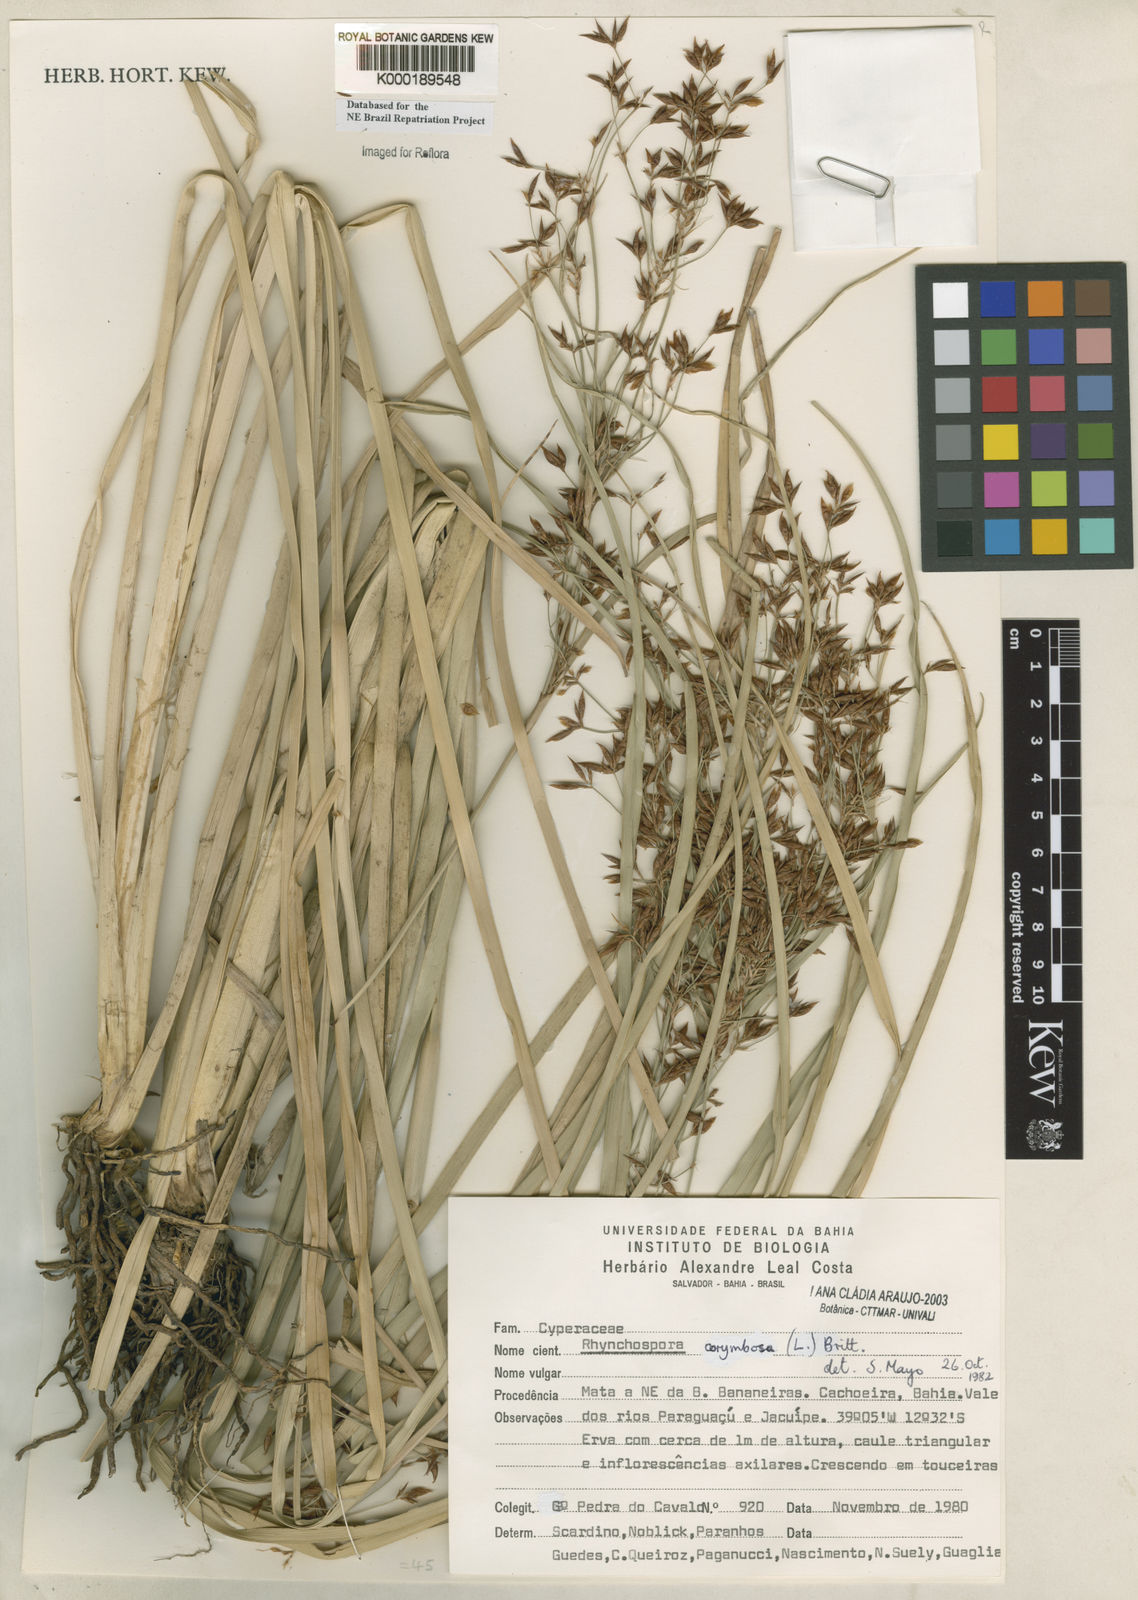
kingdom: Plantae
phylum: Tracheophyta
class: Liliopsida
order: Poales
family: Cyperaceae
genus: Rhynchospora
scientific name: Rhynchospora corymbosa
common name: Golden beak sedge
